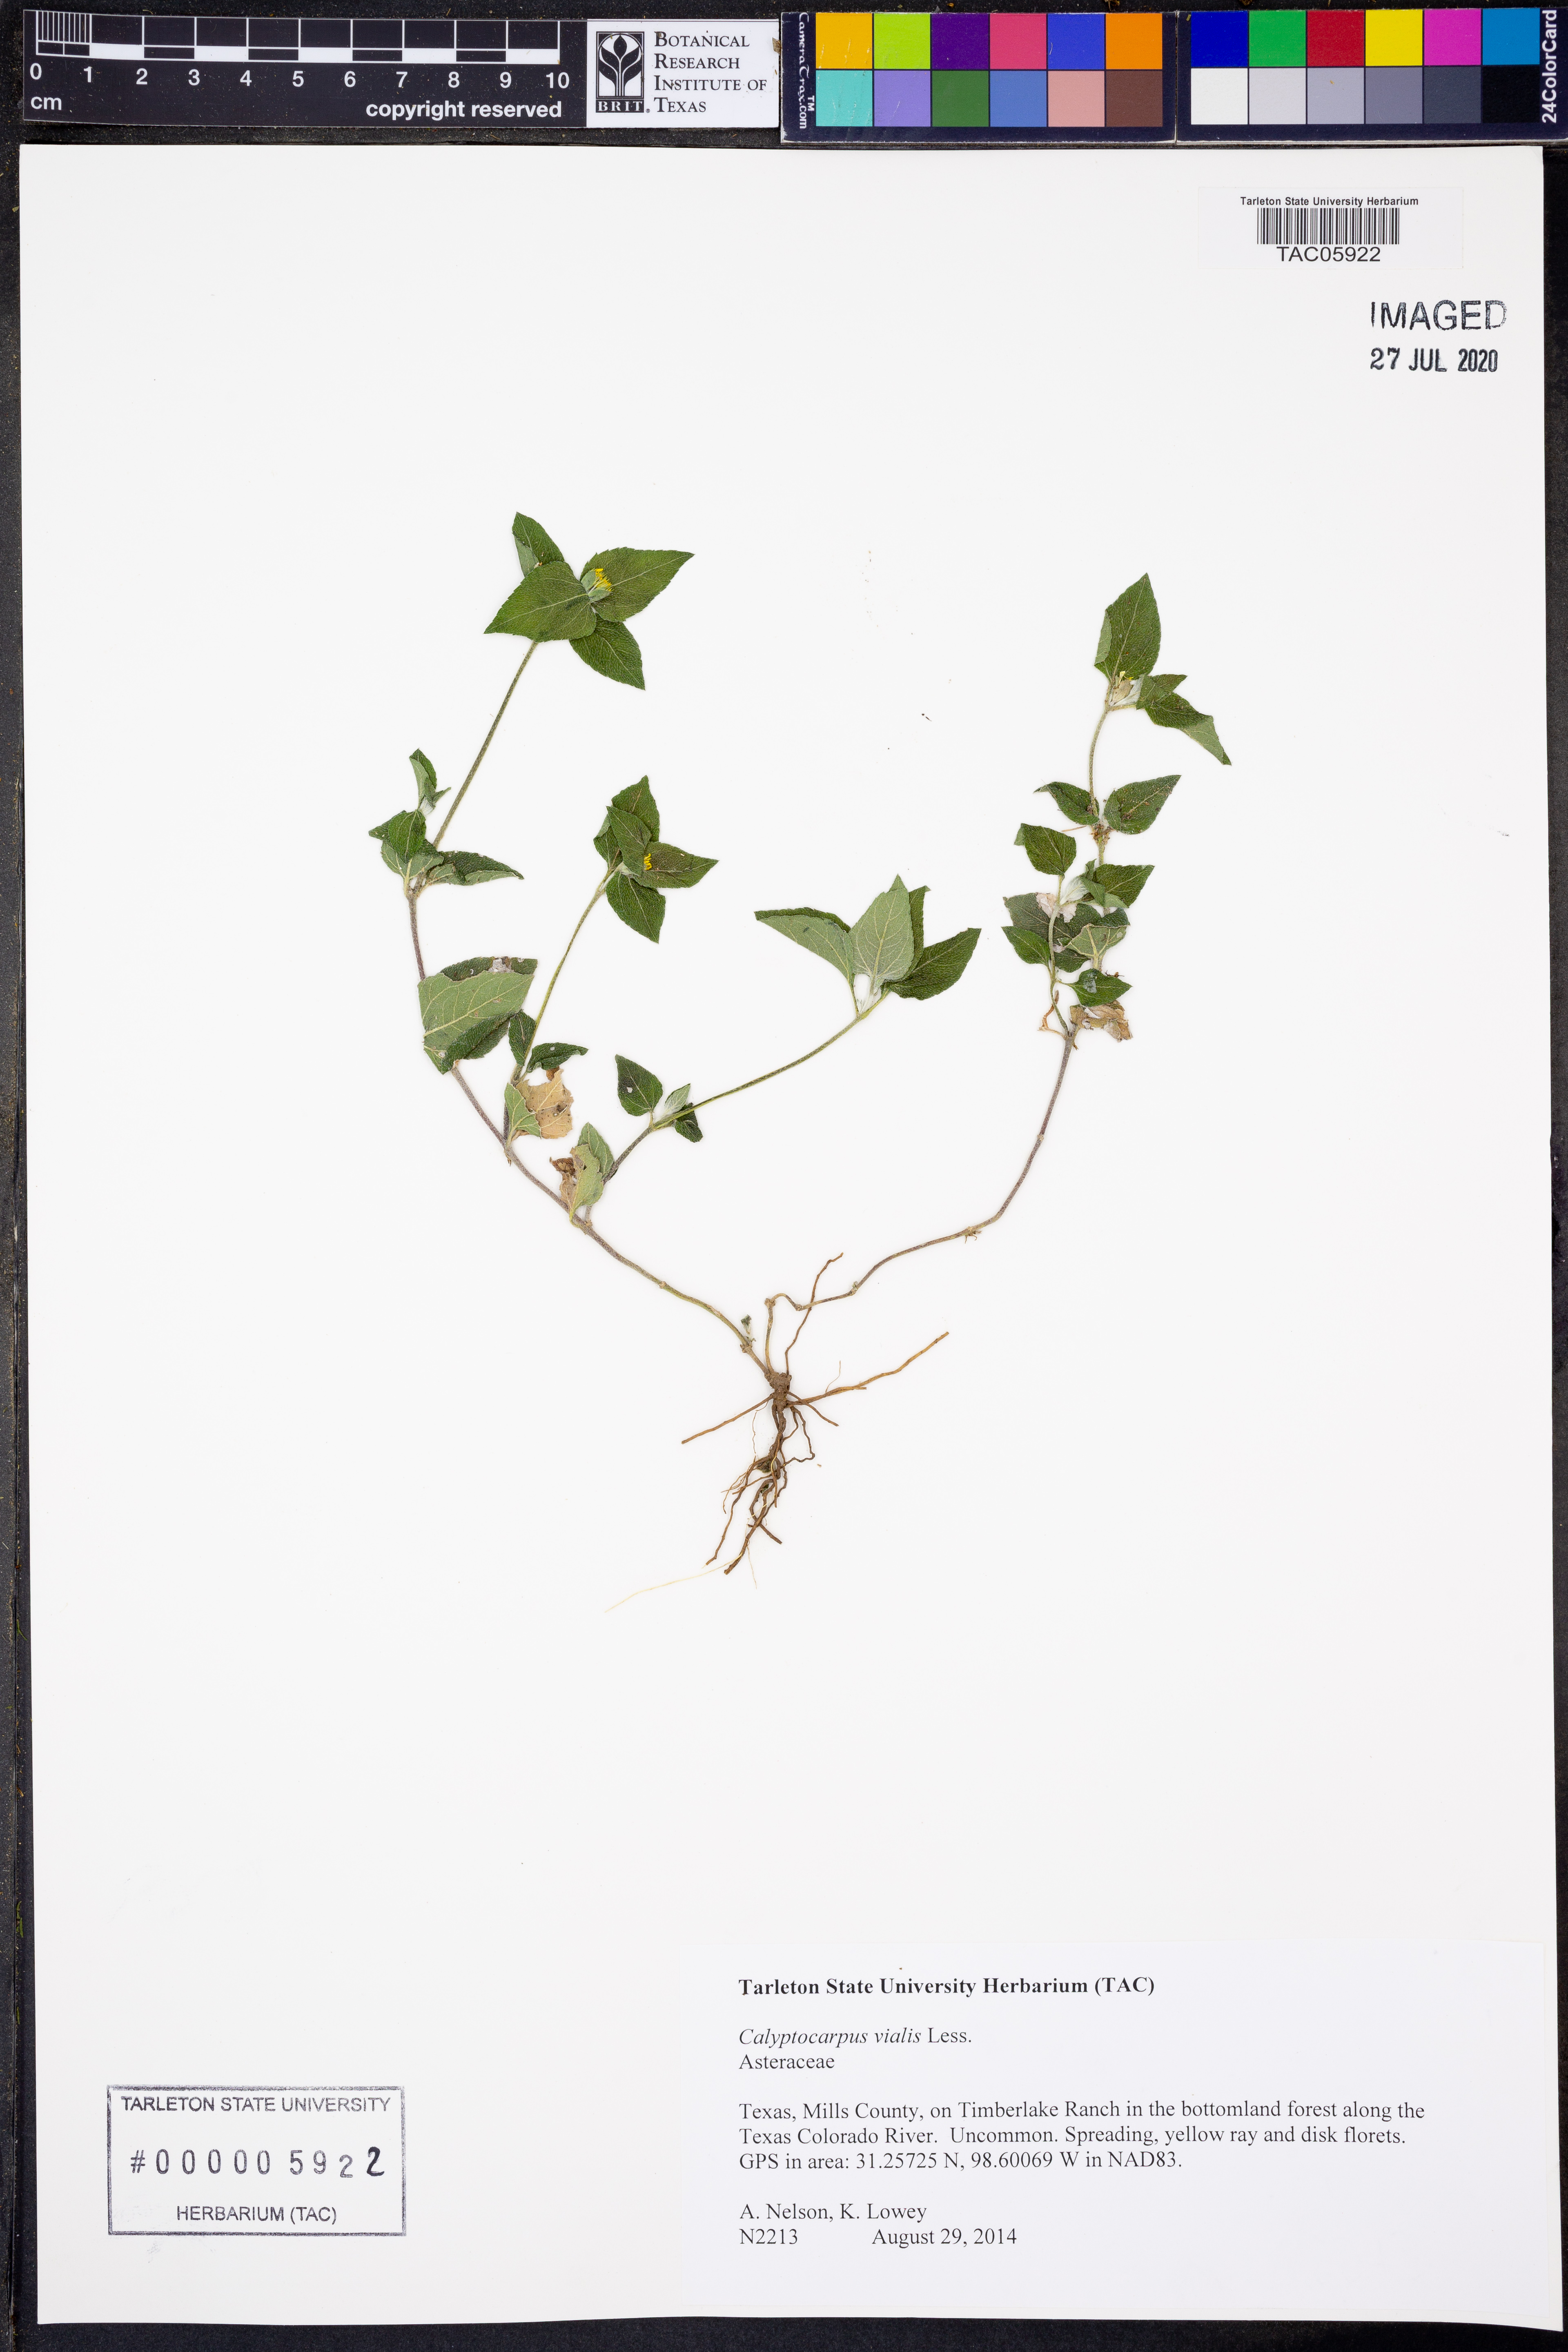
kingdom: Plantae
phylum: Tracheophyta
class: Magnoliopsida
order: Asterales
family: Asteraceae
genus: Calyptocarpus
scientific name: Calyptocarpus vialis
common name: Straggler daisy
